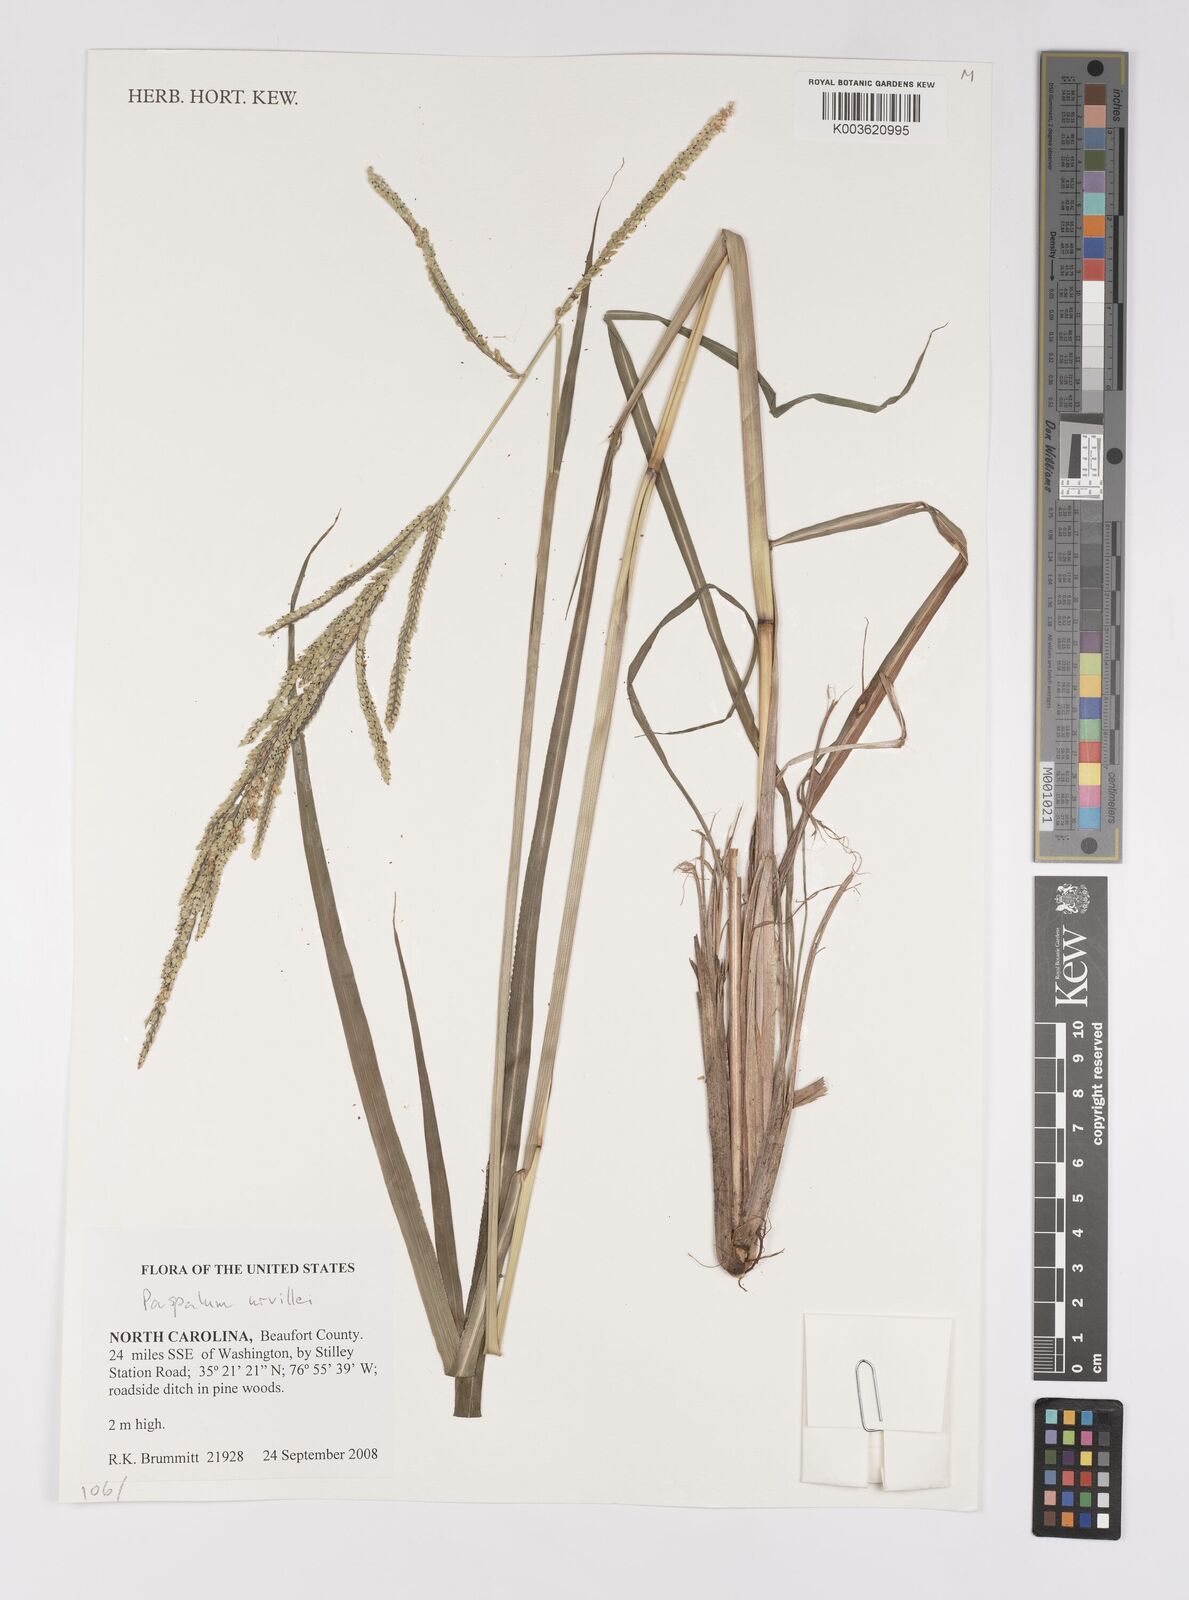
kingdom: Plantae
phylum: Tracheophyta
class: Liliopsida
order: Poales
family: Poaceae
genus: Paspalum
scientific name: Paspalum urvillei
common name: Vasey's grass
